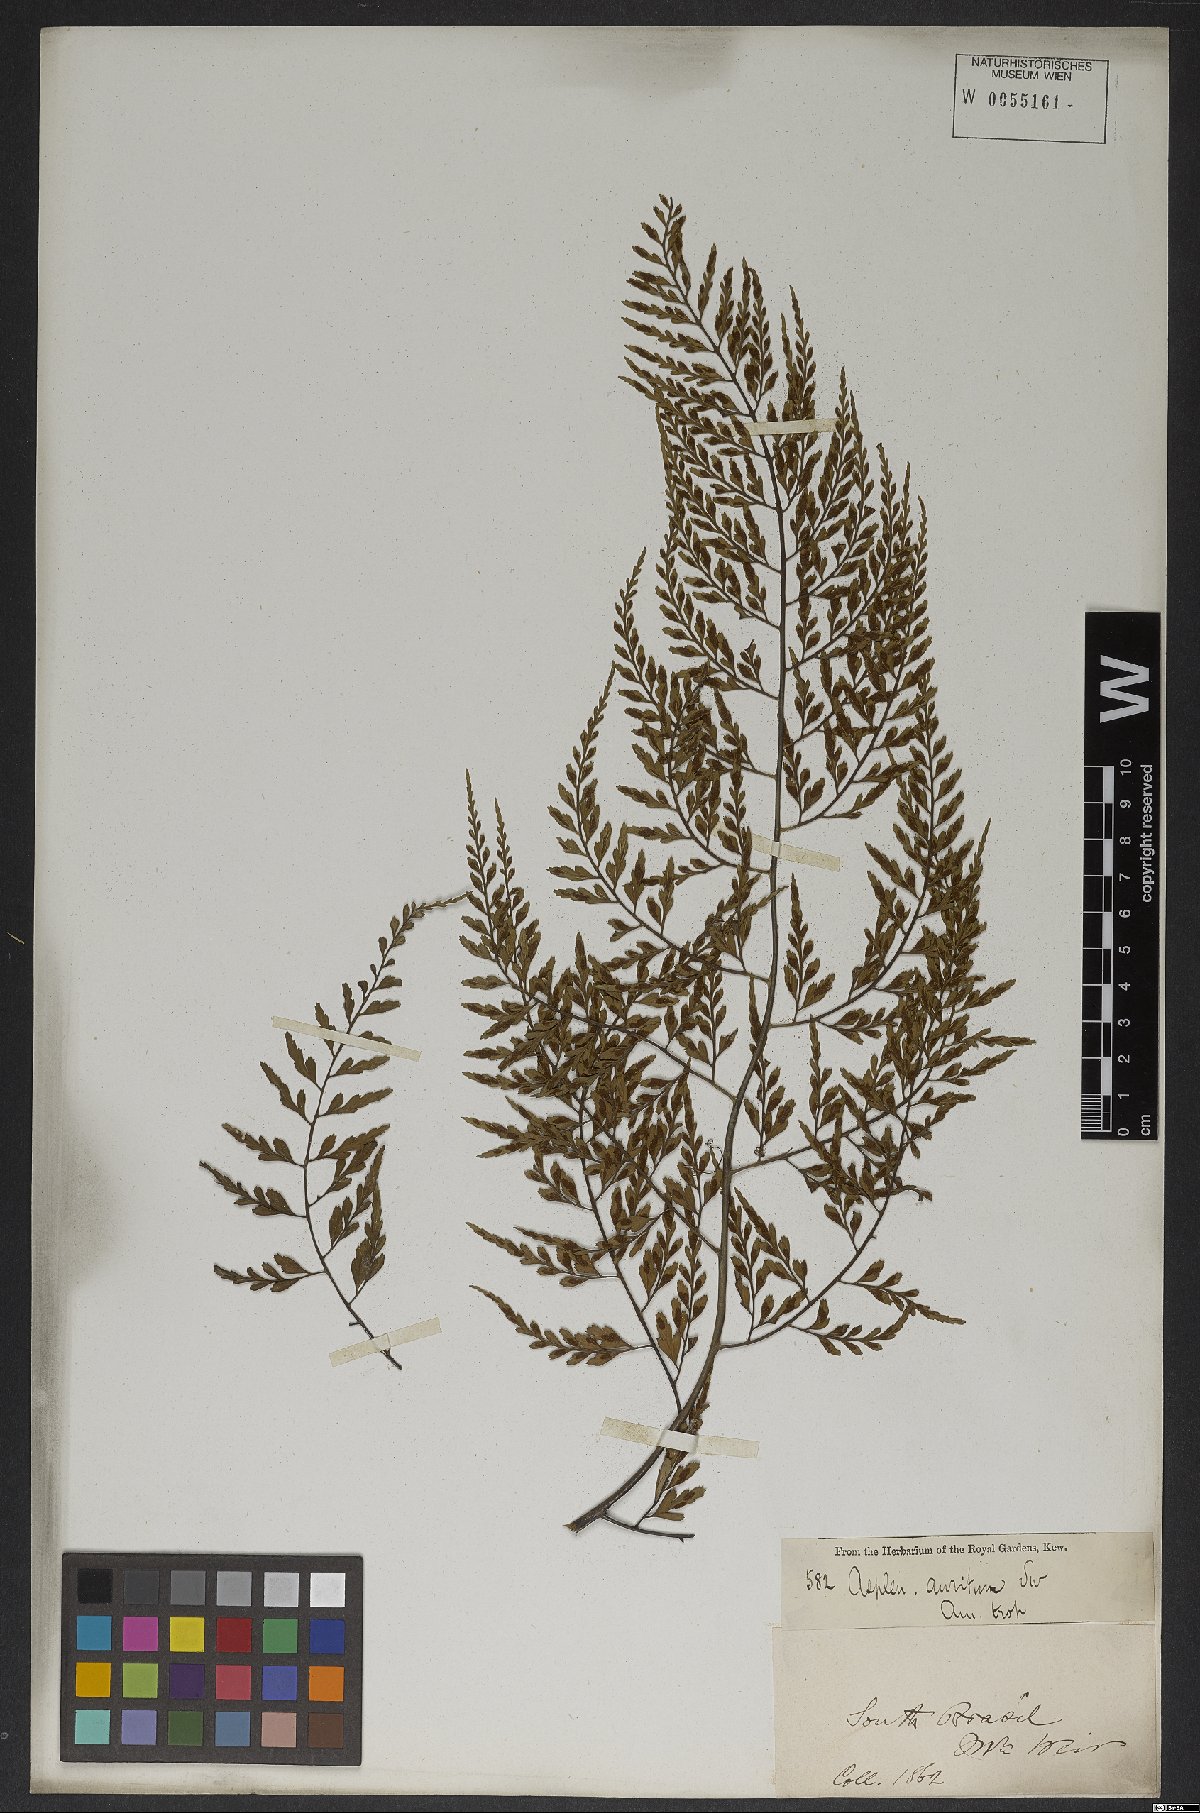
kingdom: Plantae
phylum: Tracheophyta
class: Polypodiopsida
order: Polypodiales
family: Aspleniaceae
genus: Asplenium
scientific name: Asplenium sulcatum
